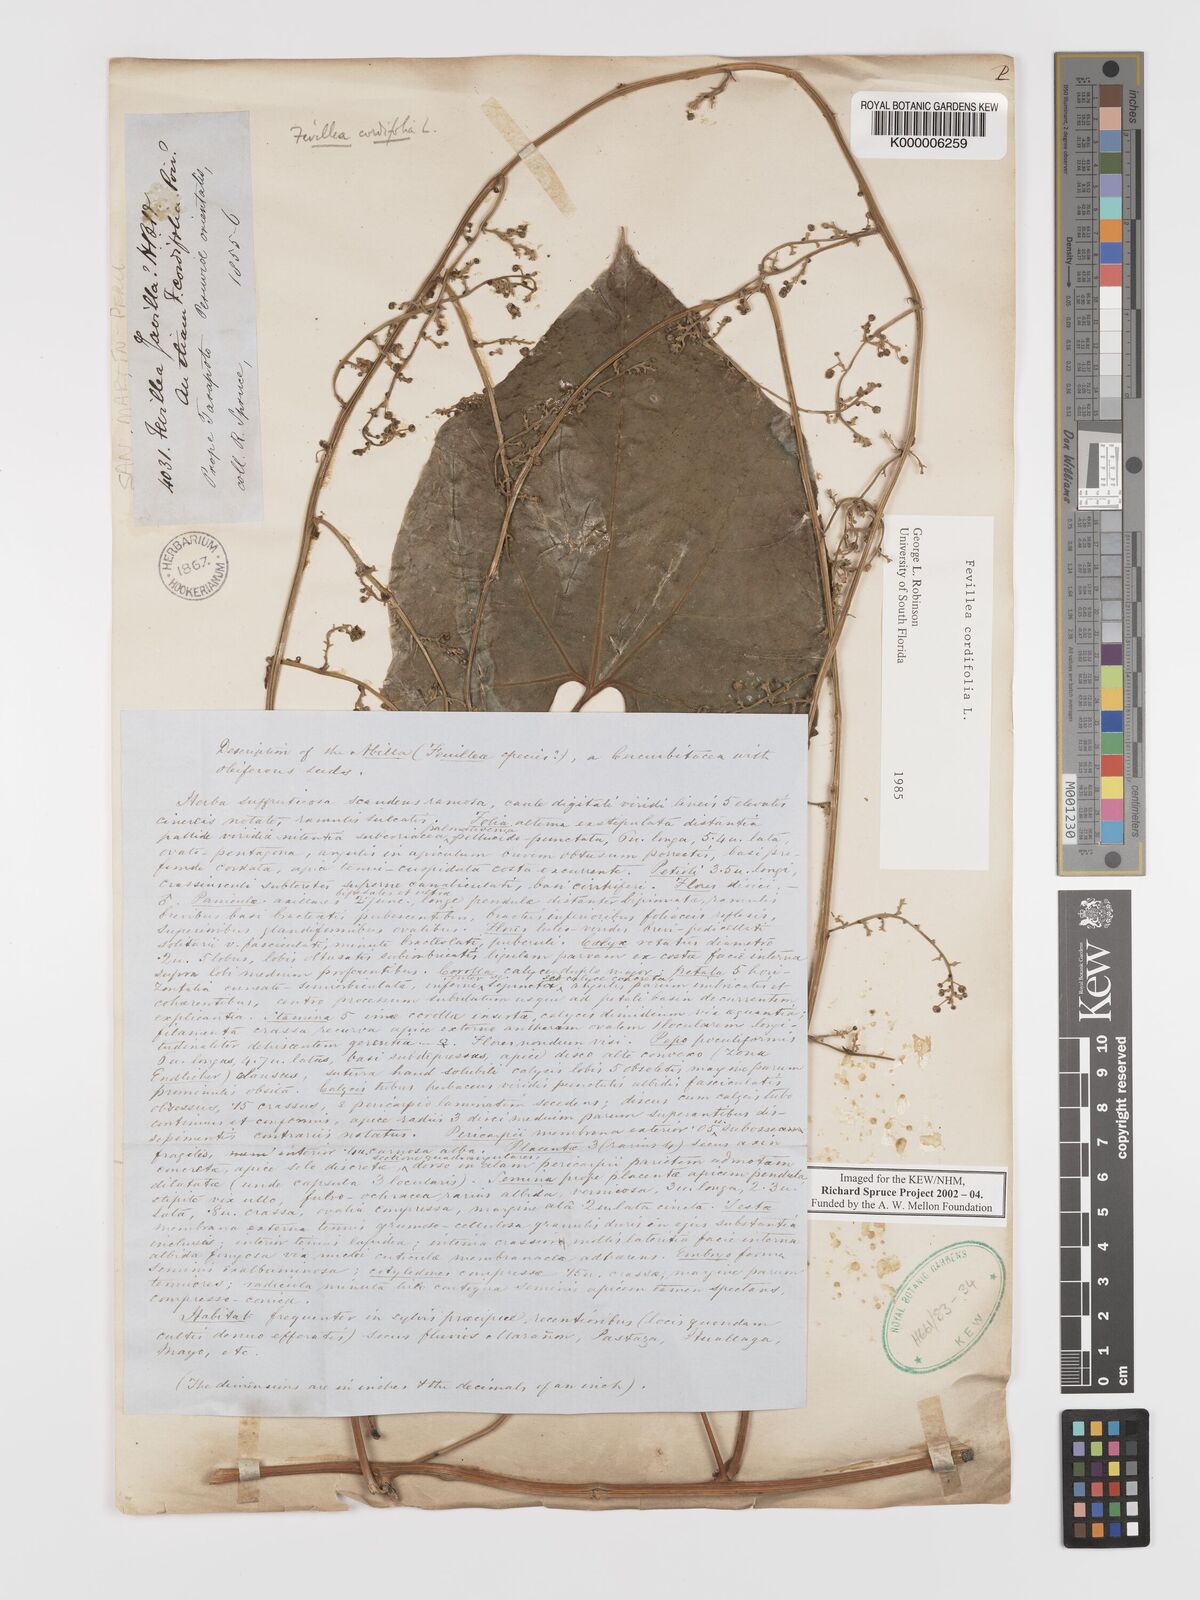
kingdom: Plantae
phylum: Tracheophyta
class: Magnoliopsida
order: Cucurbitales
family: Cucurbitaceae
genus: Fevillea
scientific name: Fevillea cordifolia
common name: Antidote-vine
